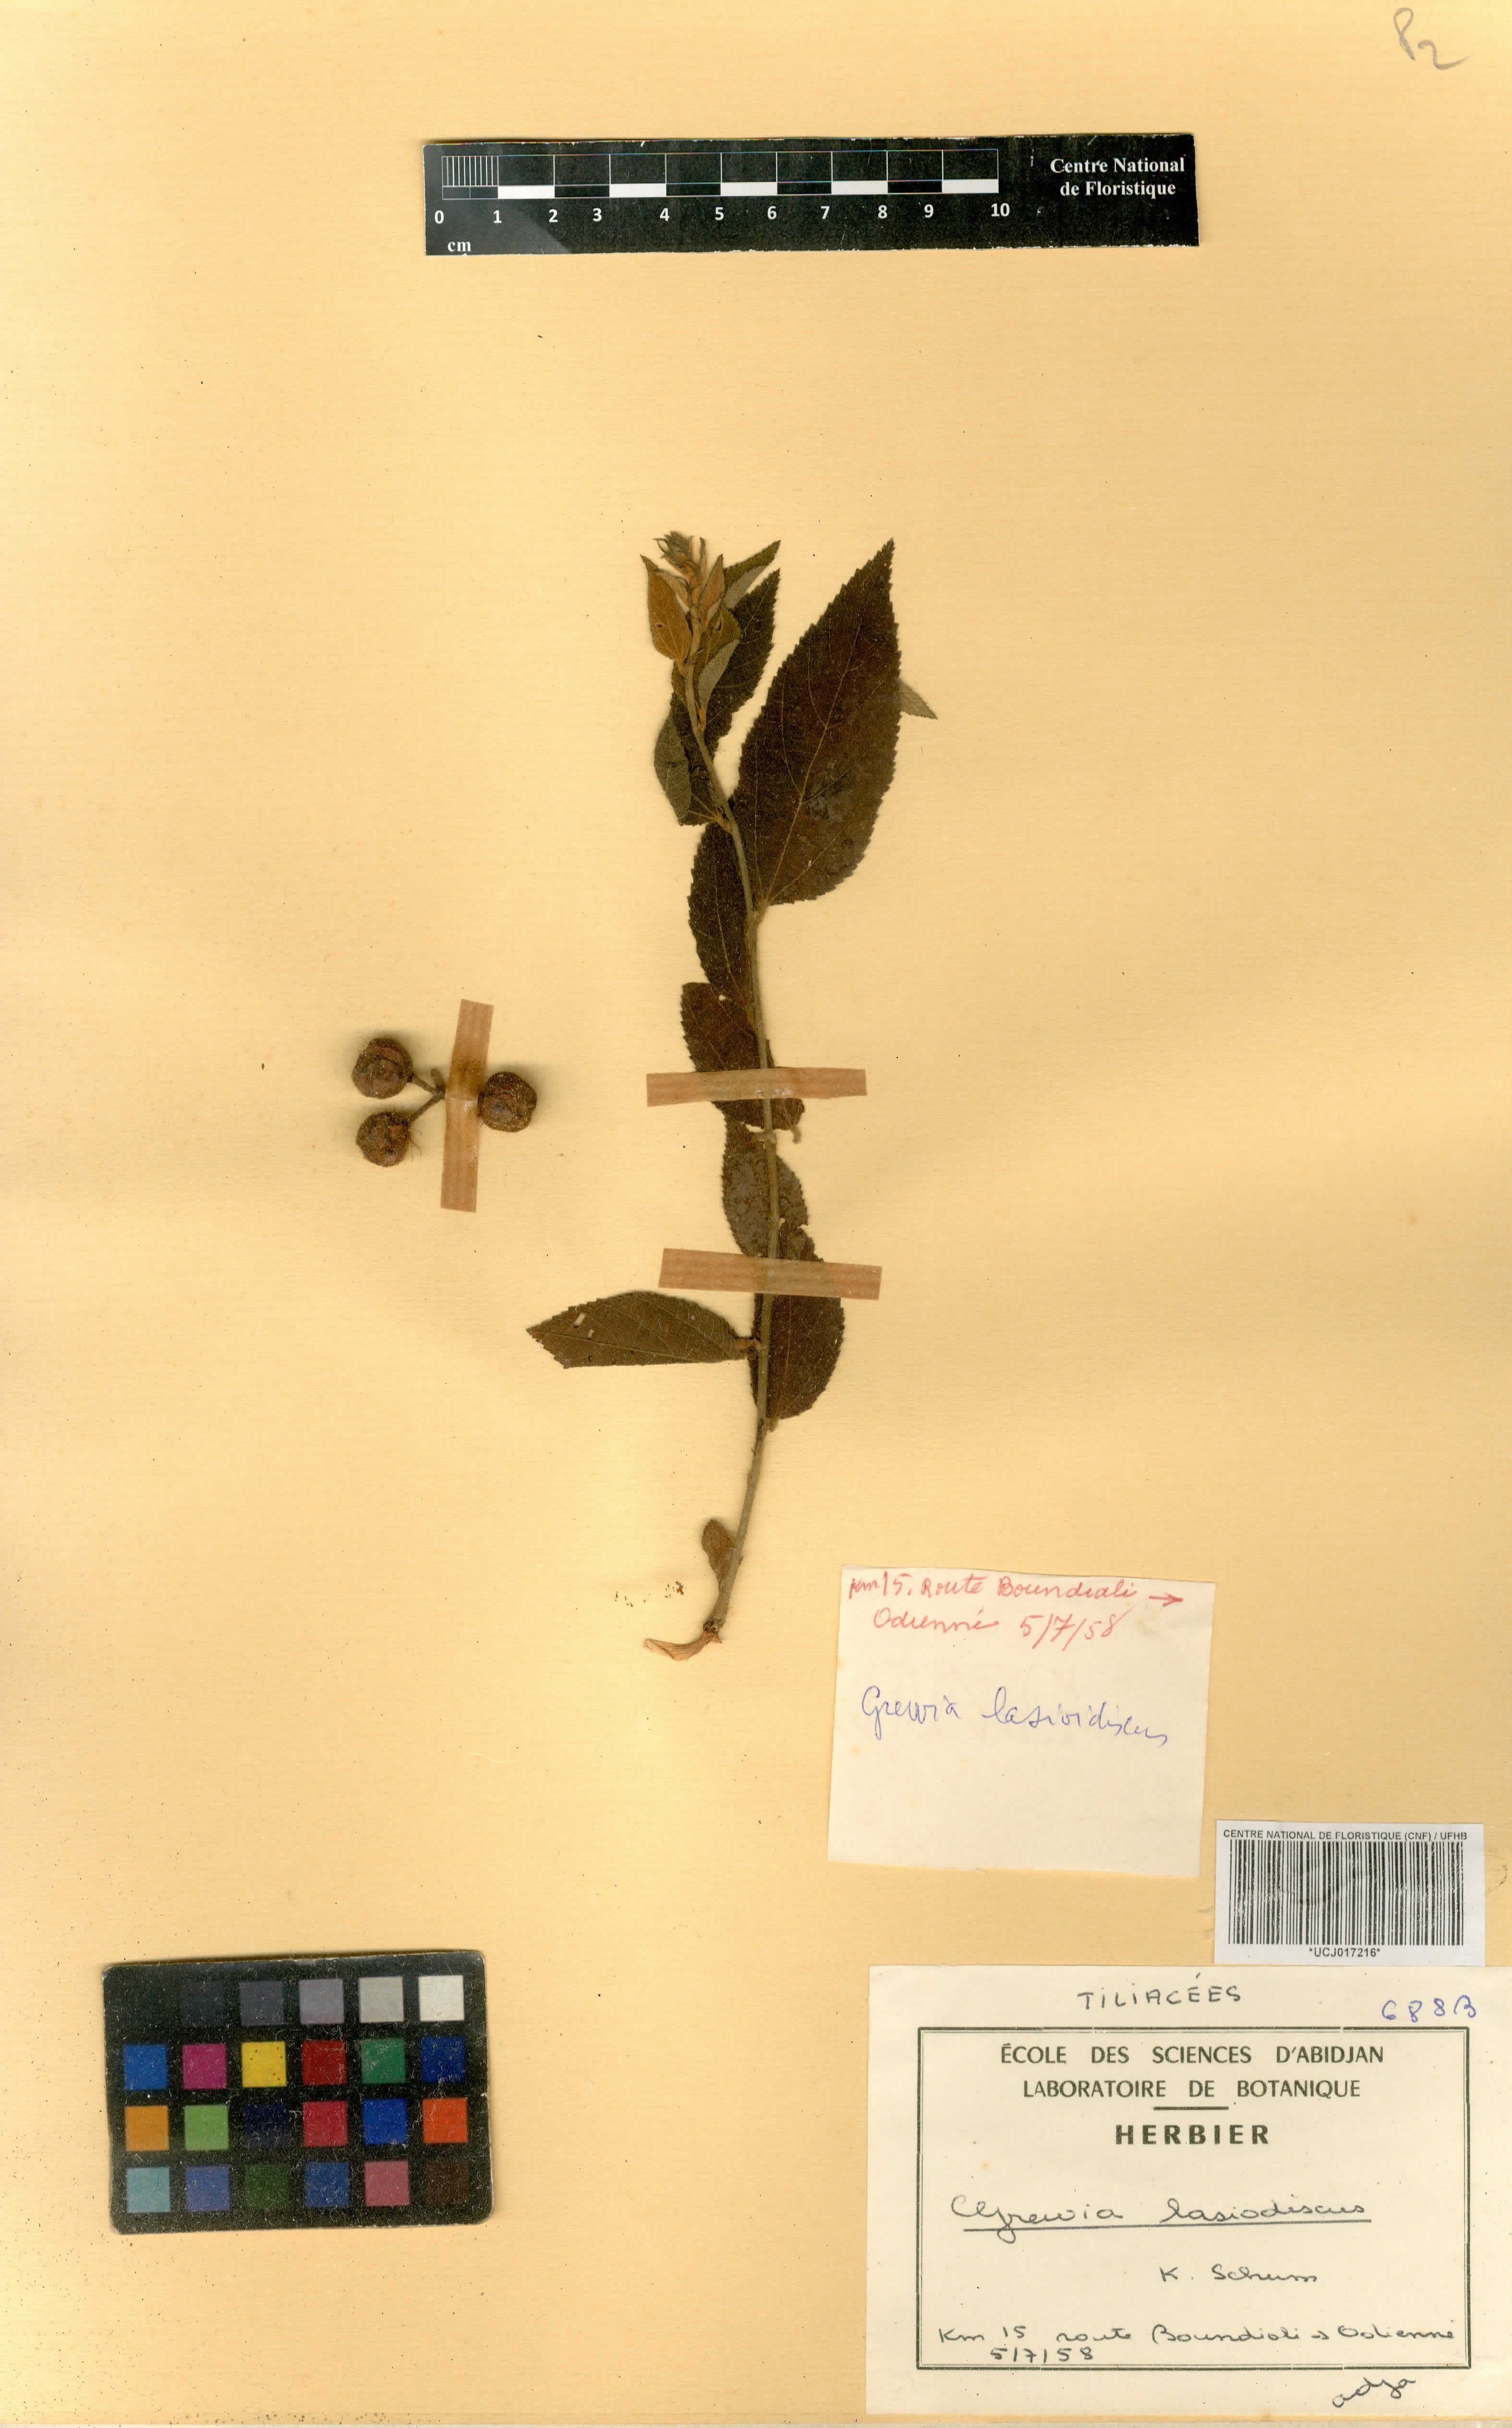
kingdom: Plantae
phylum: Tracheophyta
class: Magnoliopsida
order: Malvales
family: Malvaceae
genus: Grewia
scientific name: Grewia lasiodiscus
